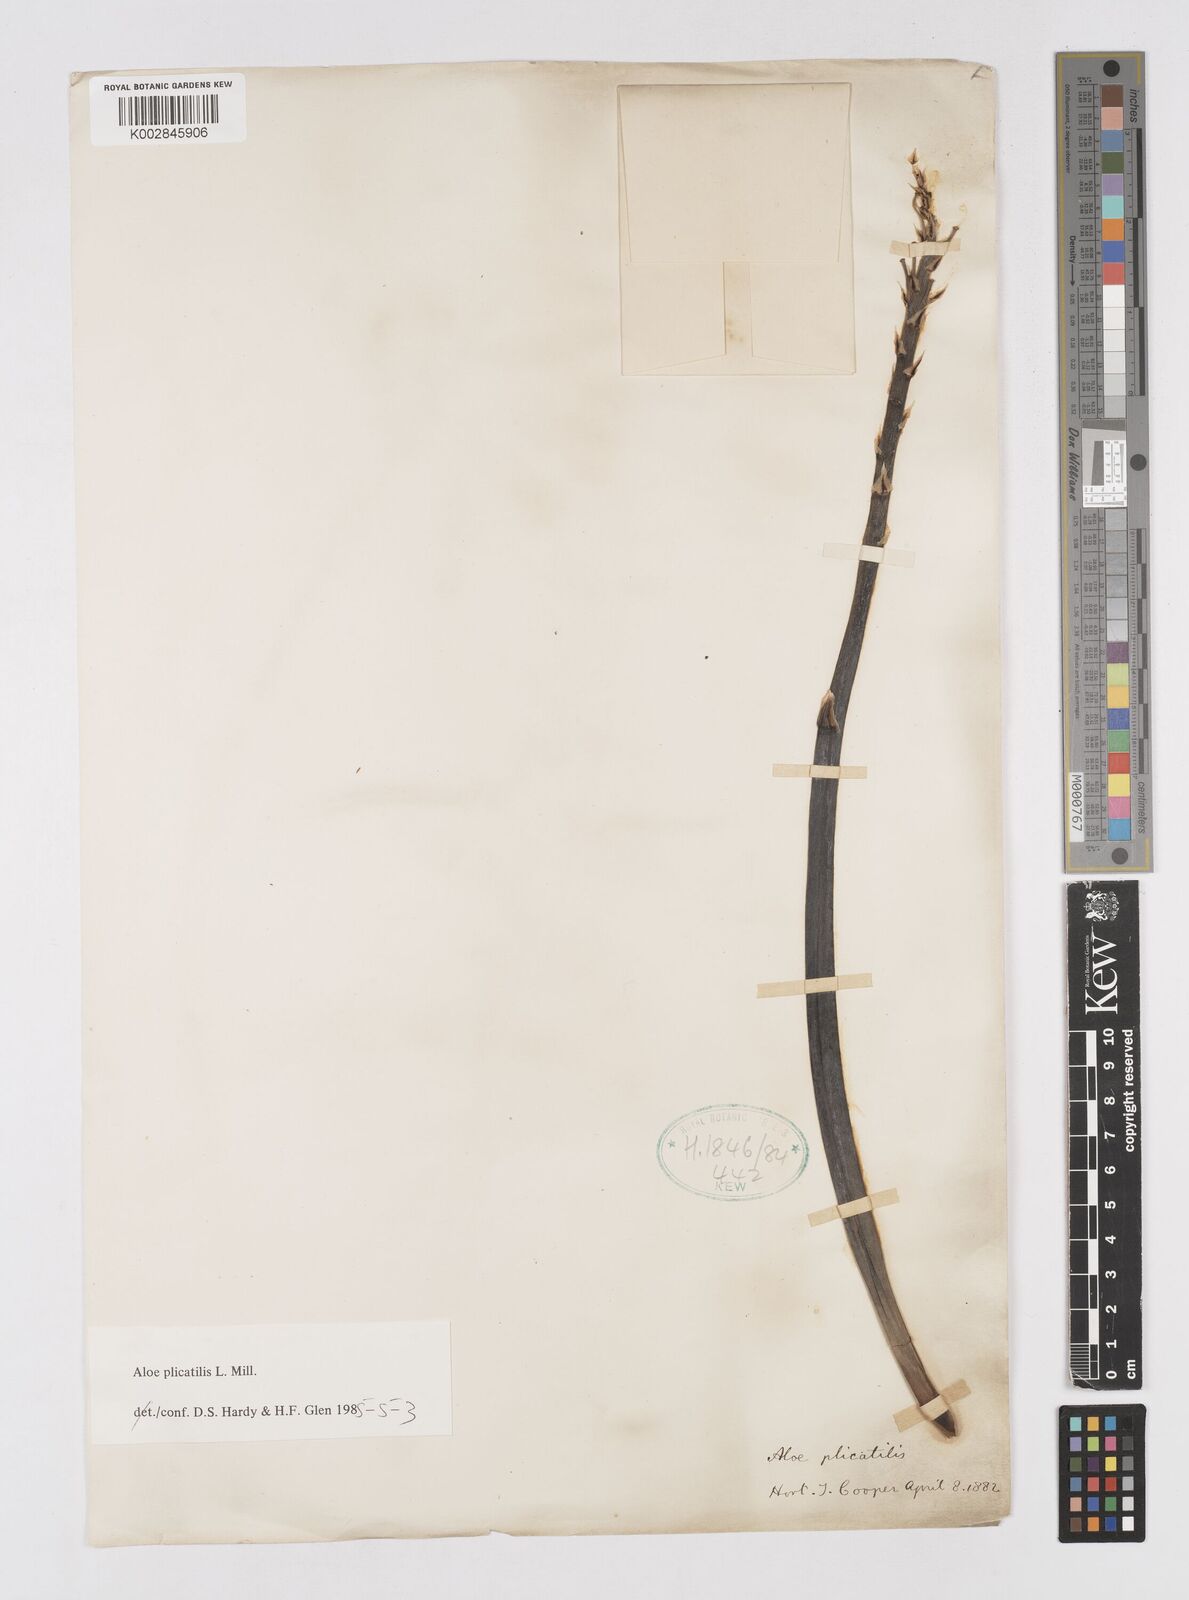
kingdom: Plantae
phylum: Tracheophyta
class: Liliopsida
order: Asparagales
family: Asphodelaceae
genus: Kumara
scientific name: Kumara plicatilis
